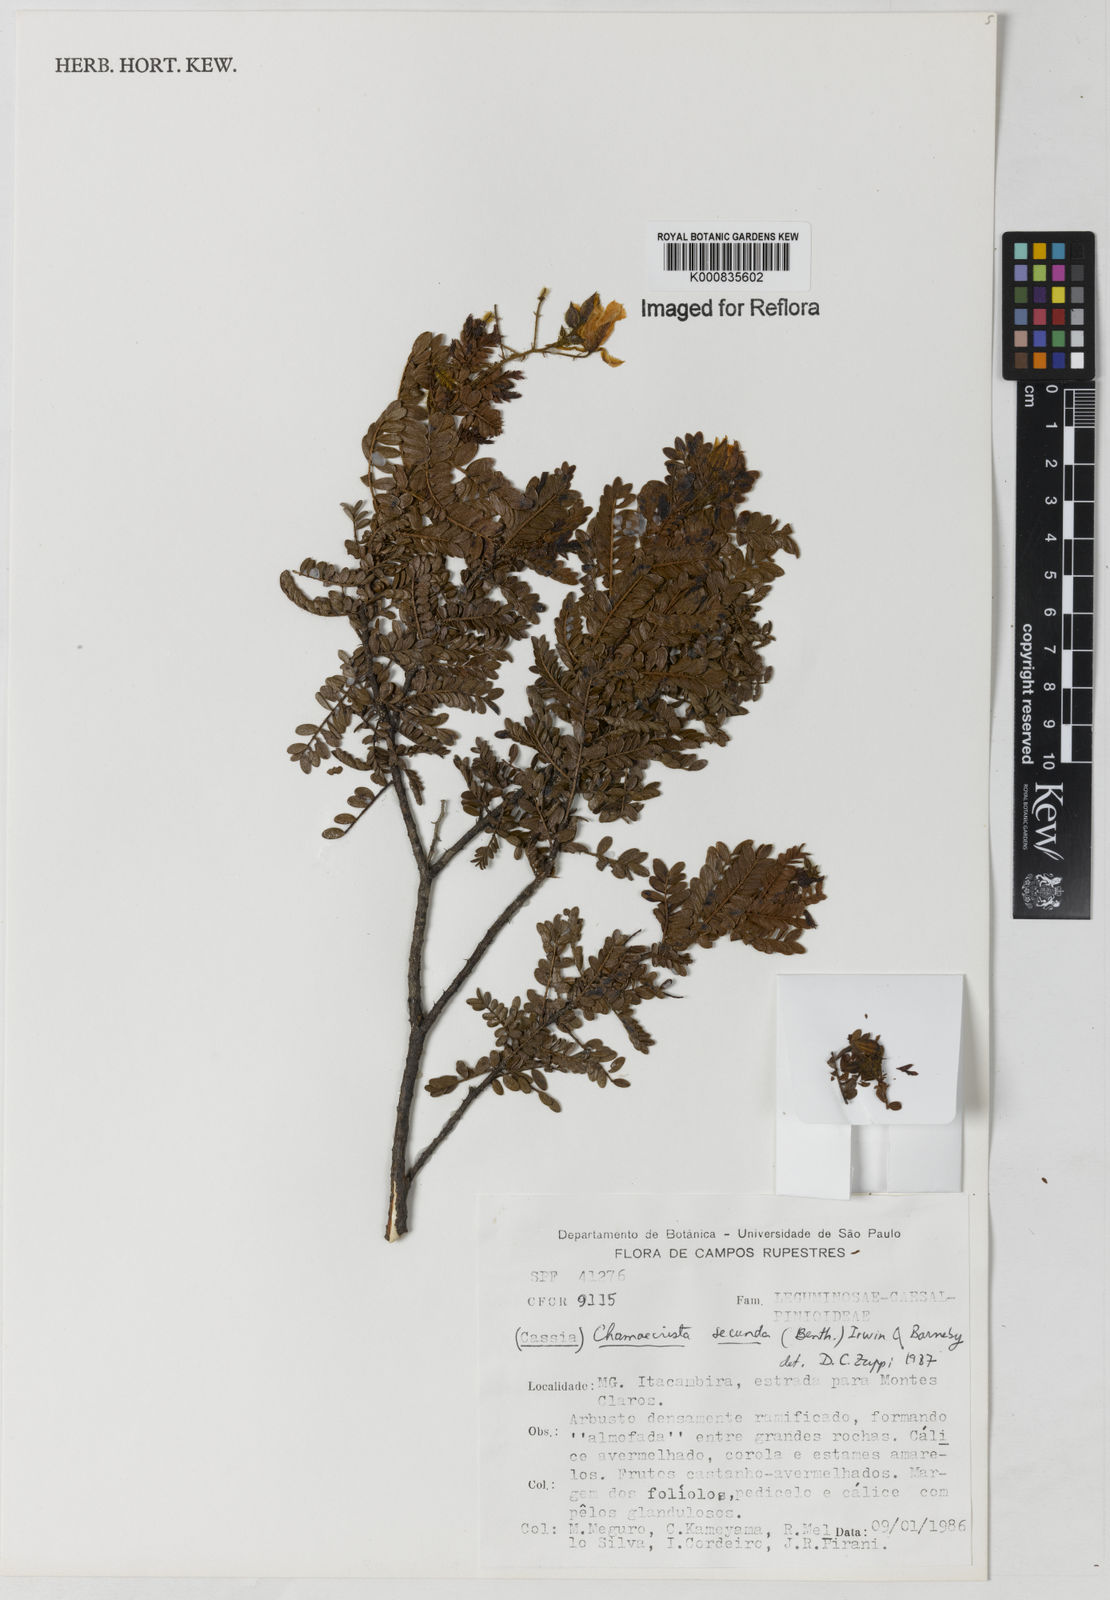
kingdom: Plantae
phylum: Tracheophyta
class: Magnoliopsida
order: Fabales
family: Fabaceae
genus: Chamaecrista
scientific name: Chamaecrista secunda
